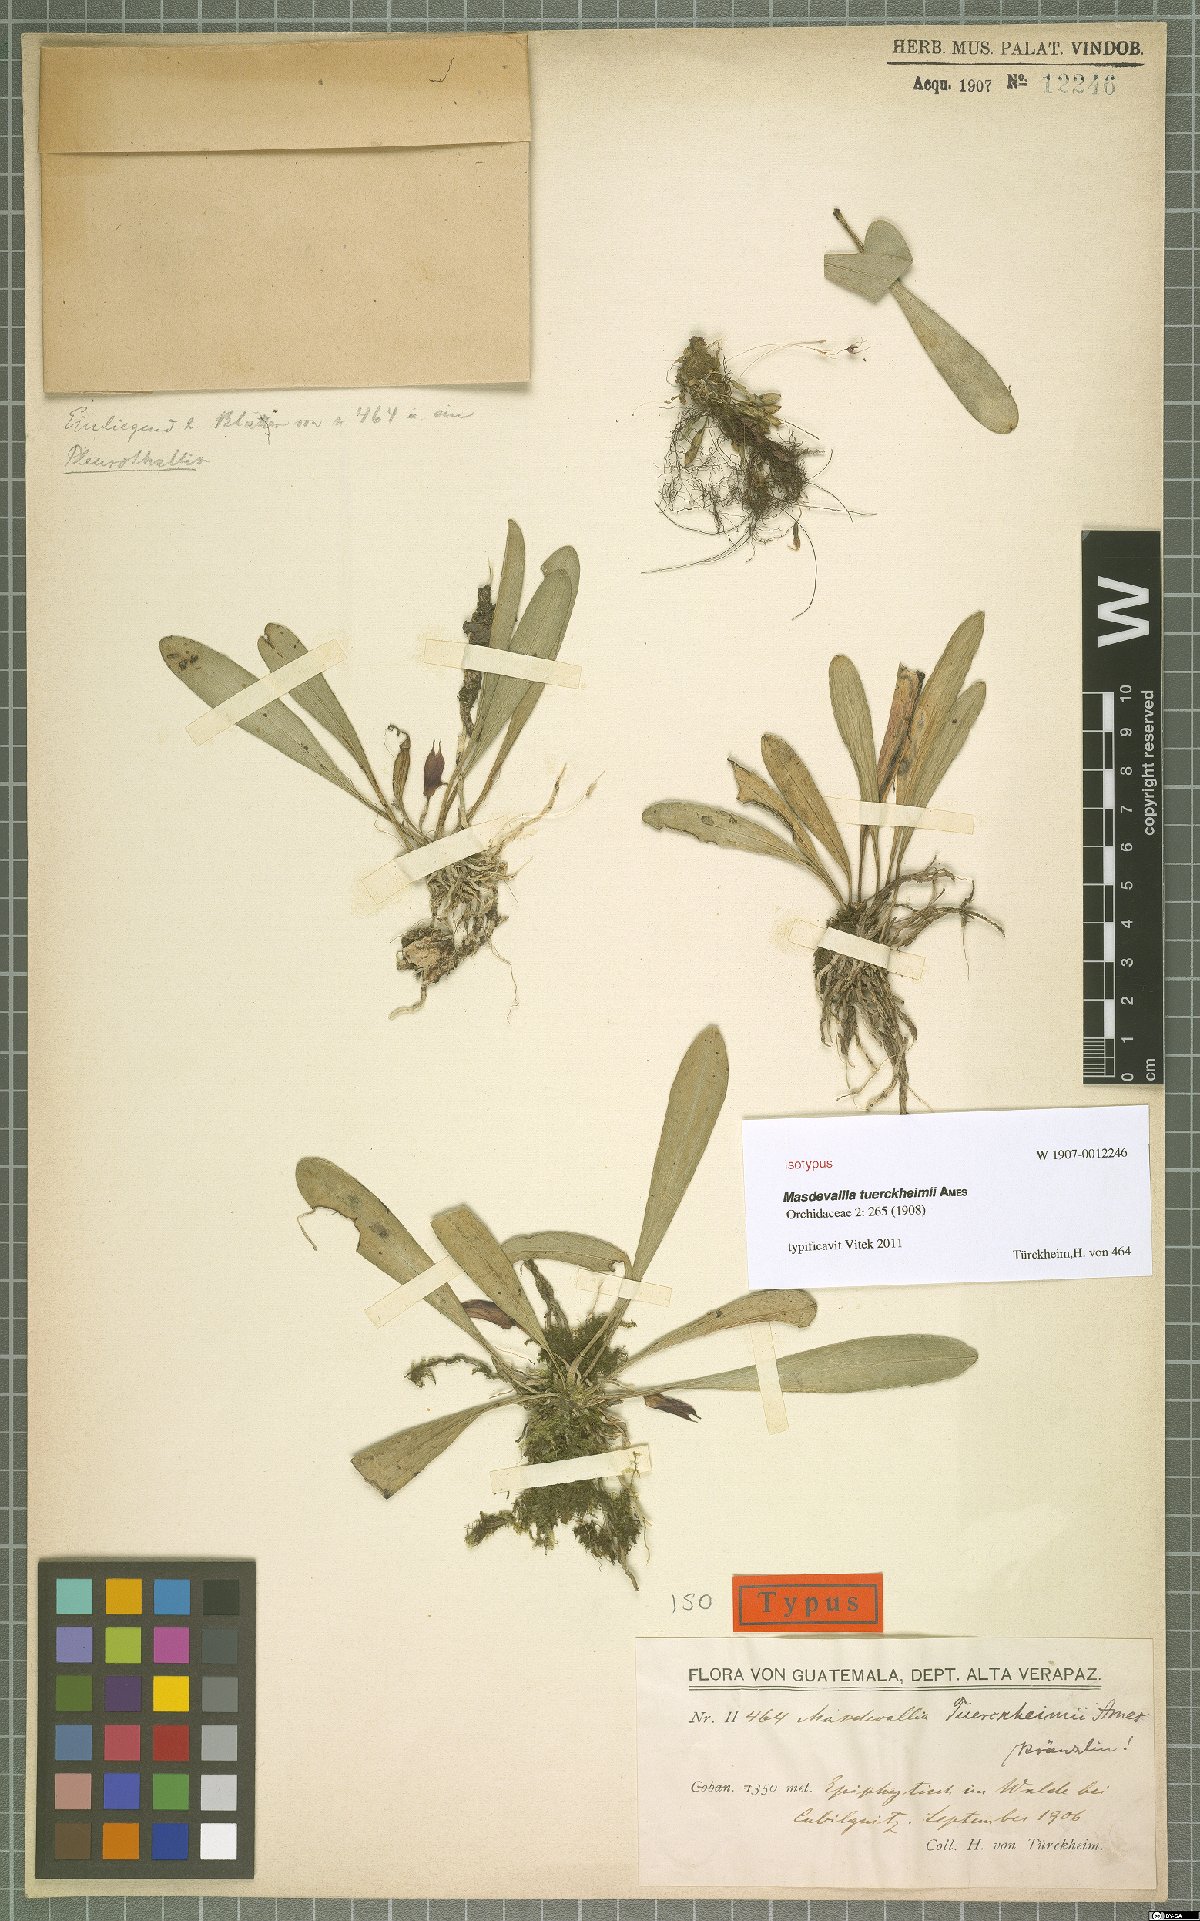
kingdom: Plantae
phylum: Tracheophyta
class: Liliopsida
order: Asparagales
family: Orchidaceae
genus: Masdevallia
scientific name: Masdevallia tuerckheimii
